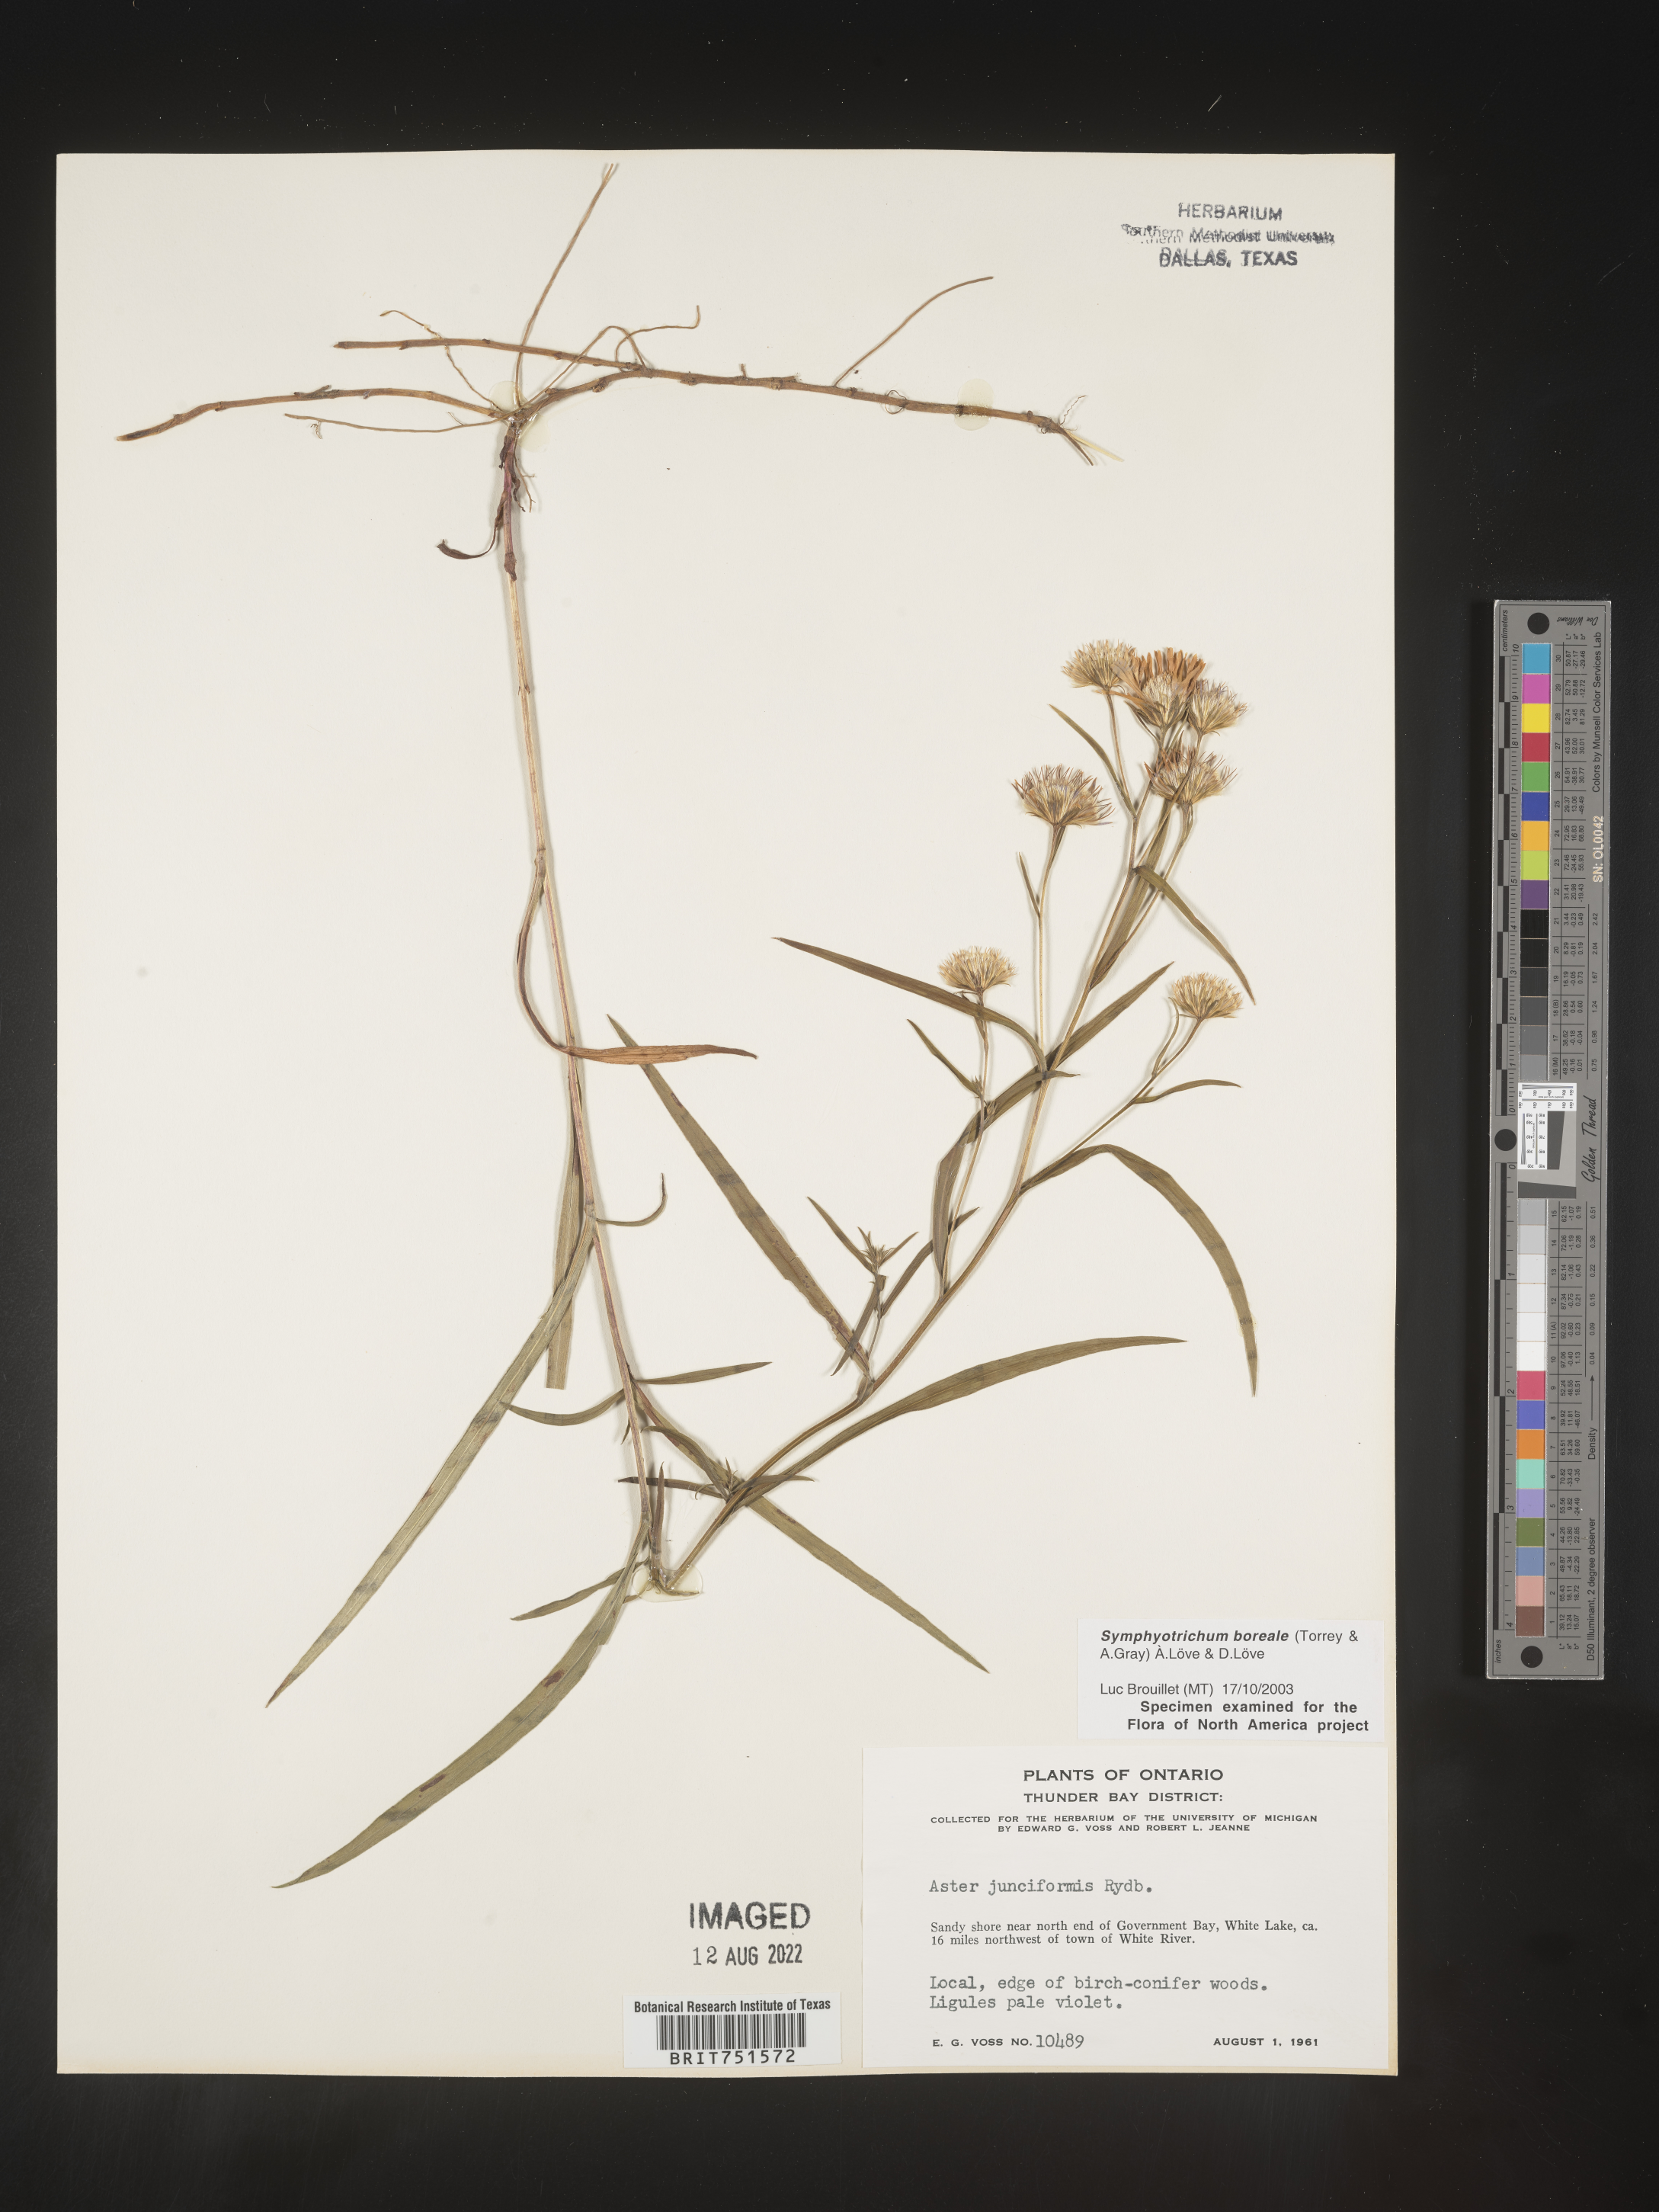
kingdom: Plantae
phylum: Tracheophyta
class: Magnoliopsida
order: Asterales
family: Asteraceae
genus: Symphyotrichum
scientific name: Symphyotrichum boreale
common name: Northern bog aster
